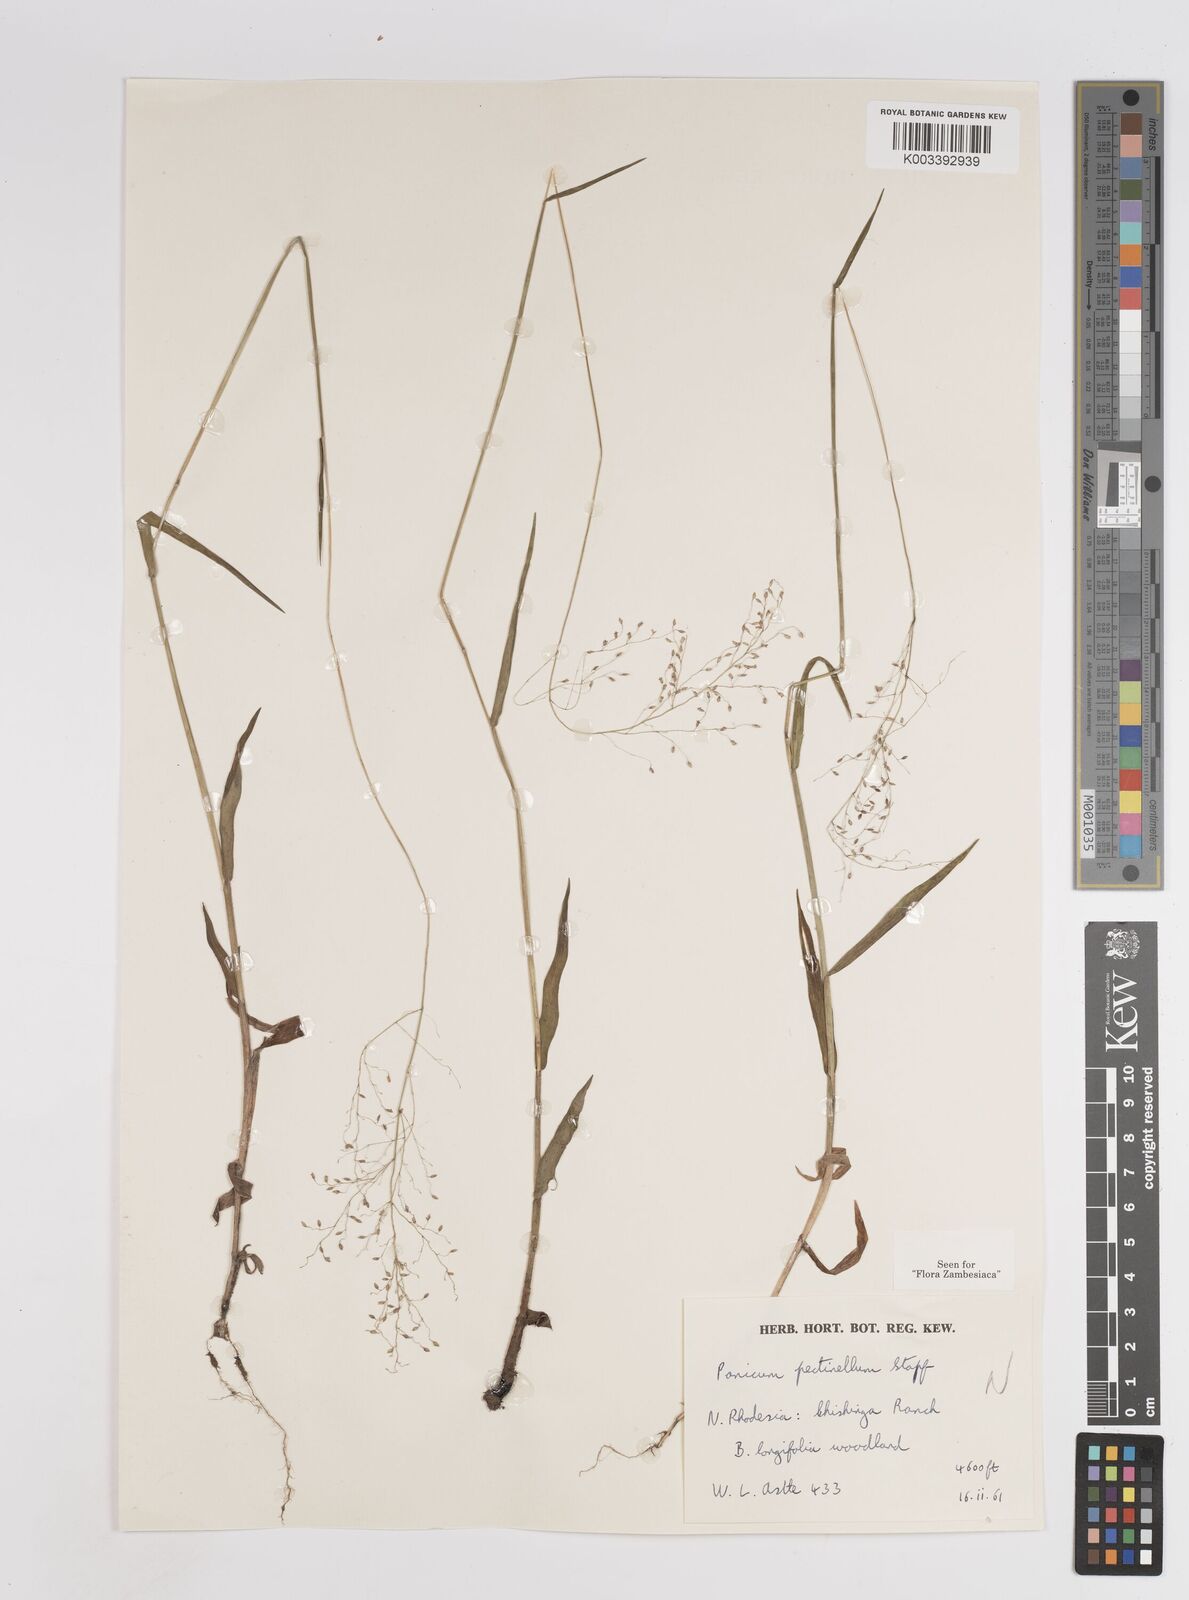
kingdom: Plantae
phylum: Tracheophyta
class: Liliopsida
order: Poales
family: Poaceae
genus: Adenochloa
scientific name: Adenochloa pectinella
